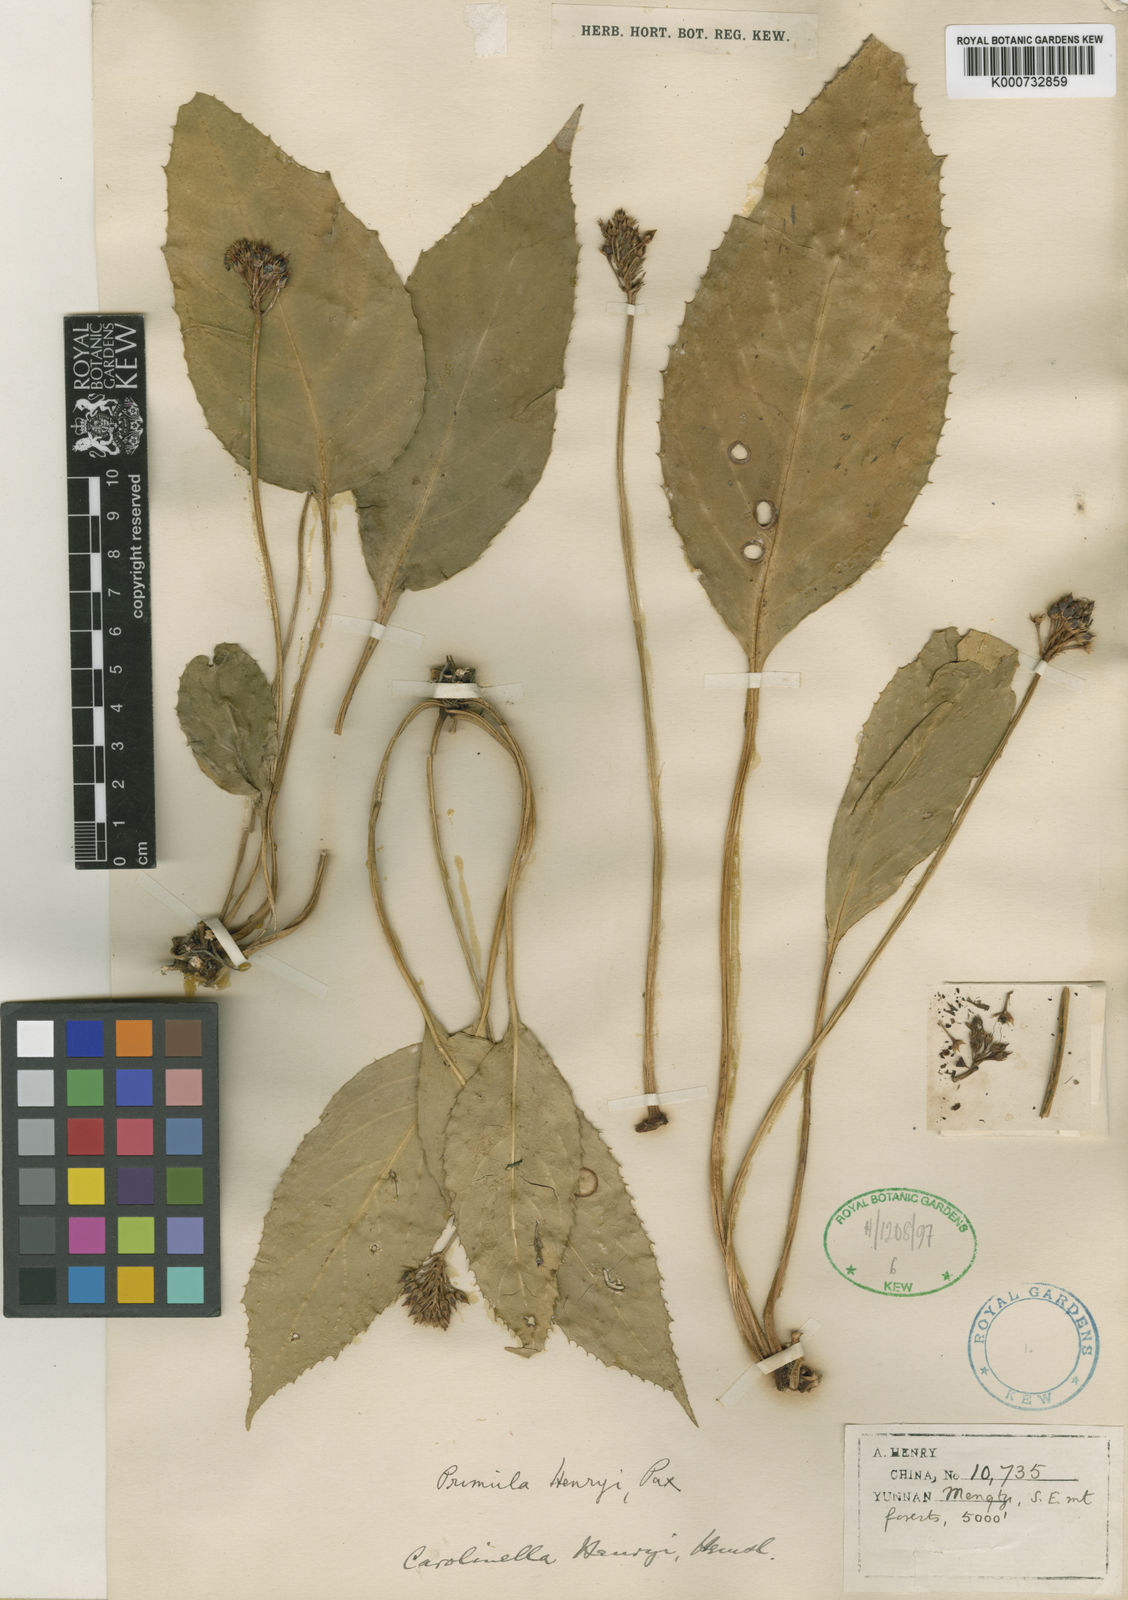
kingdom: Plantae
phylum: Tracheophyta
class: Magnoliopsida
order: Ericales
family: Primulaceae
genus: Primula
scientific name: Primula carolinehenryae
